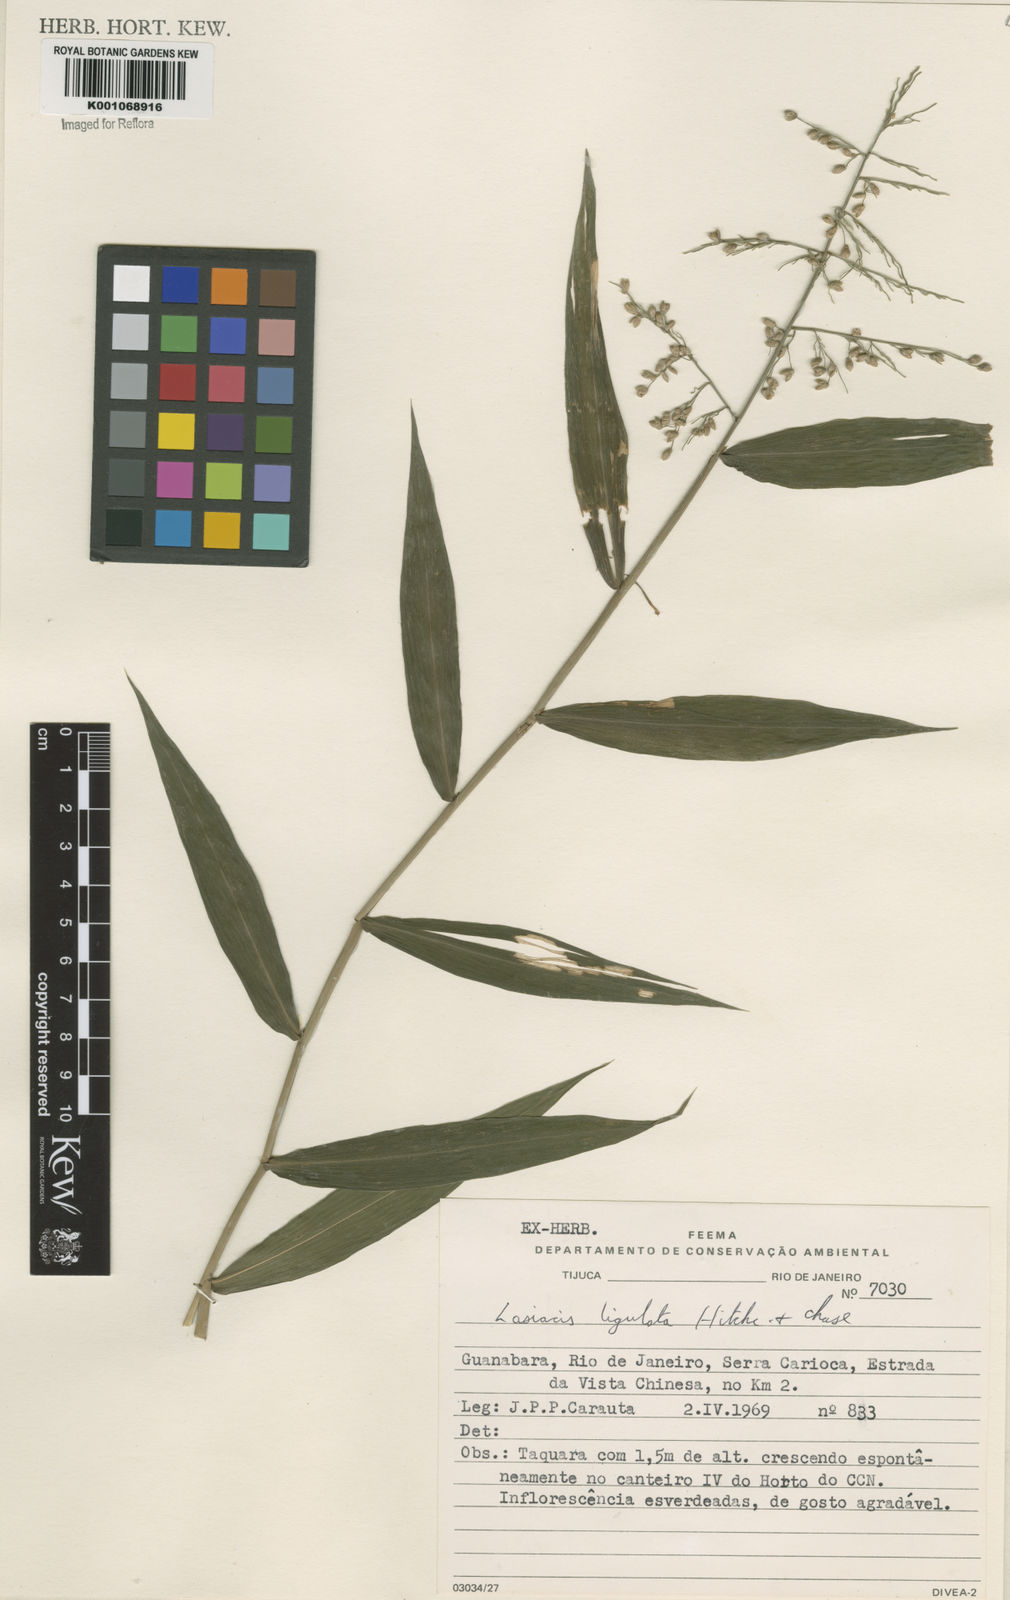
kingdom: Plantae
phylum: Tracheophyta
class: Liliopsida
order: Poales
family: Poaceae
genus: Lasiacis
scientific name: Lasiacis ligulata
